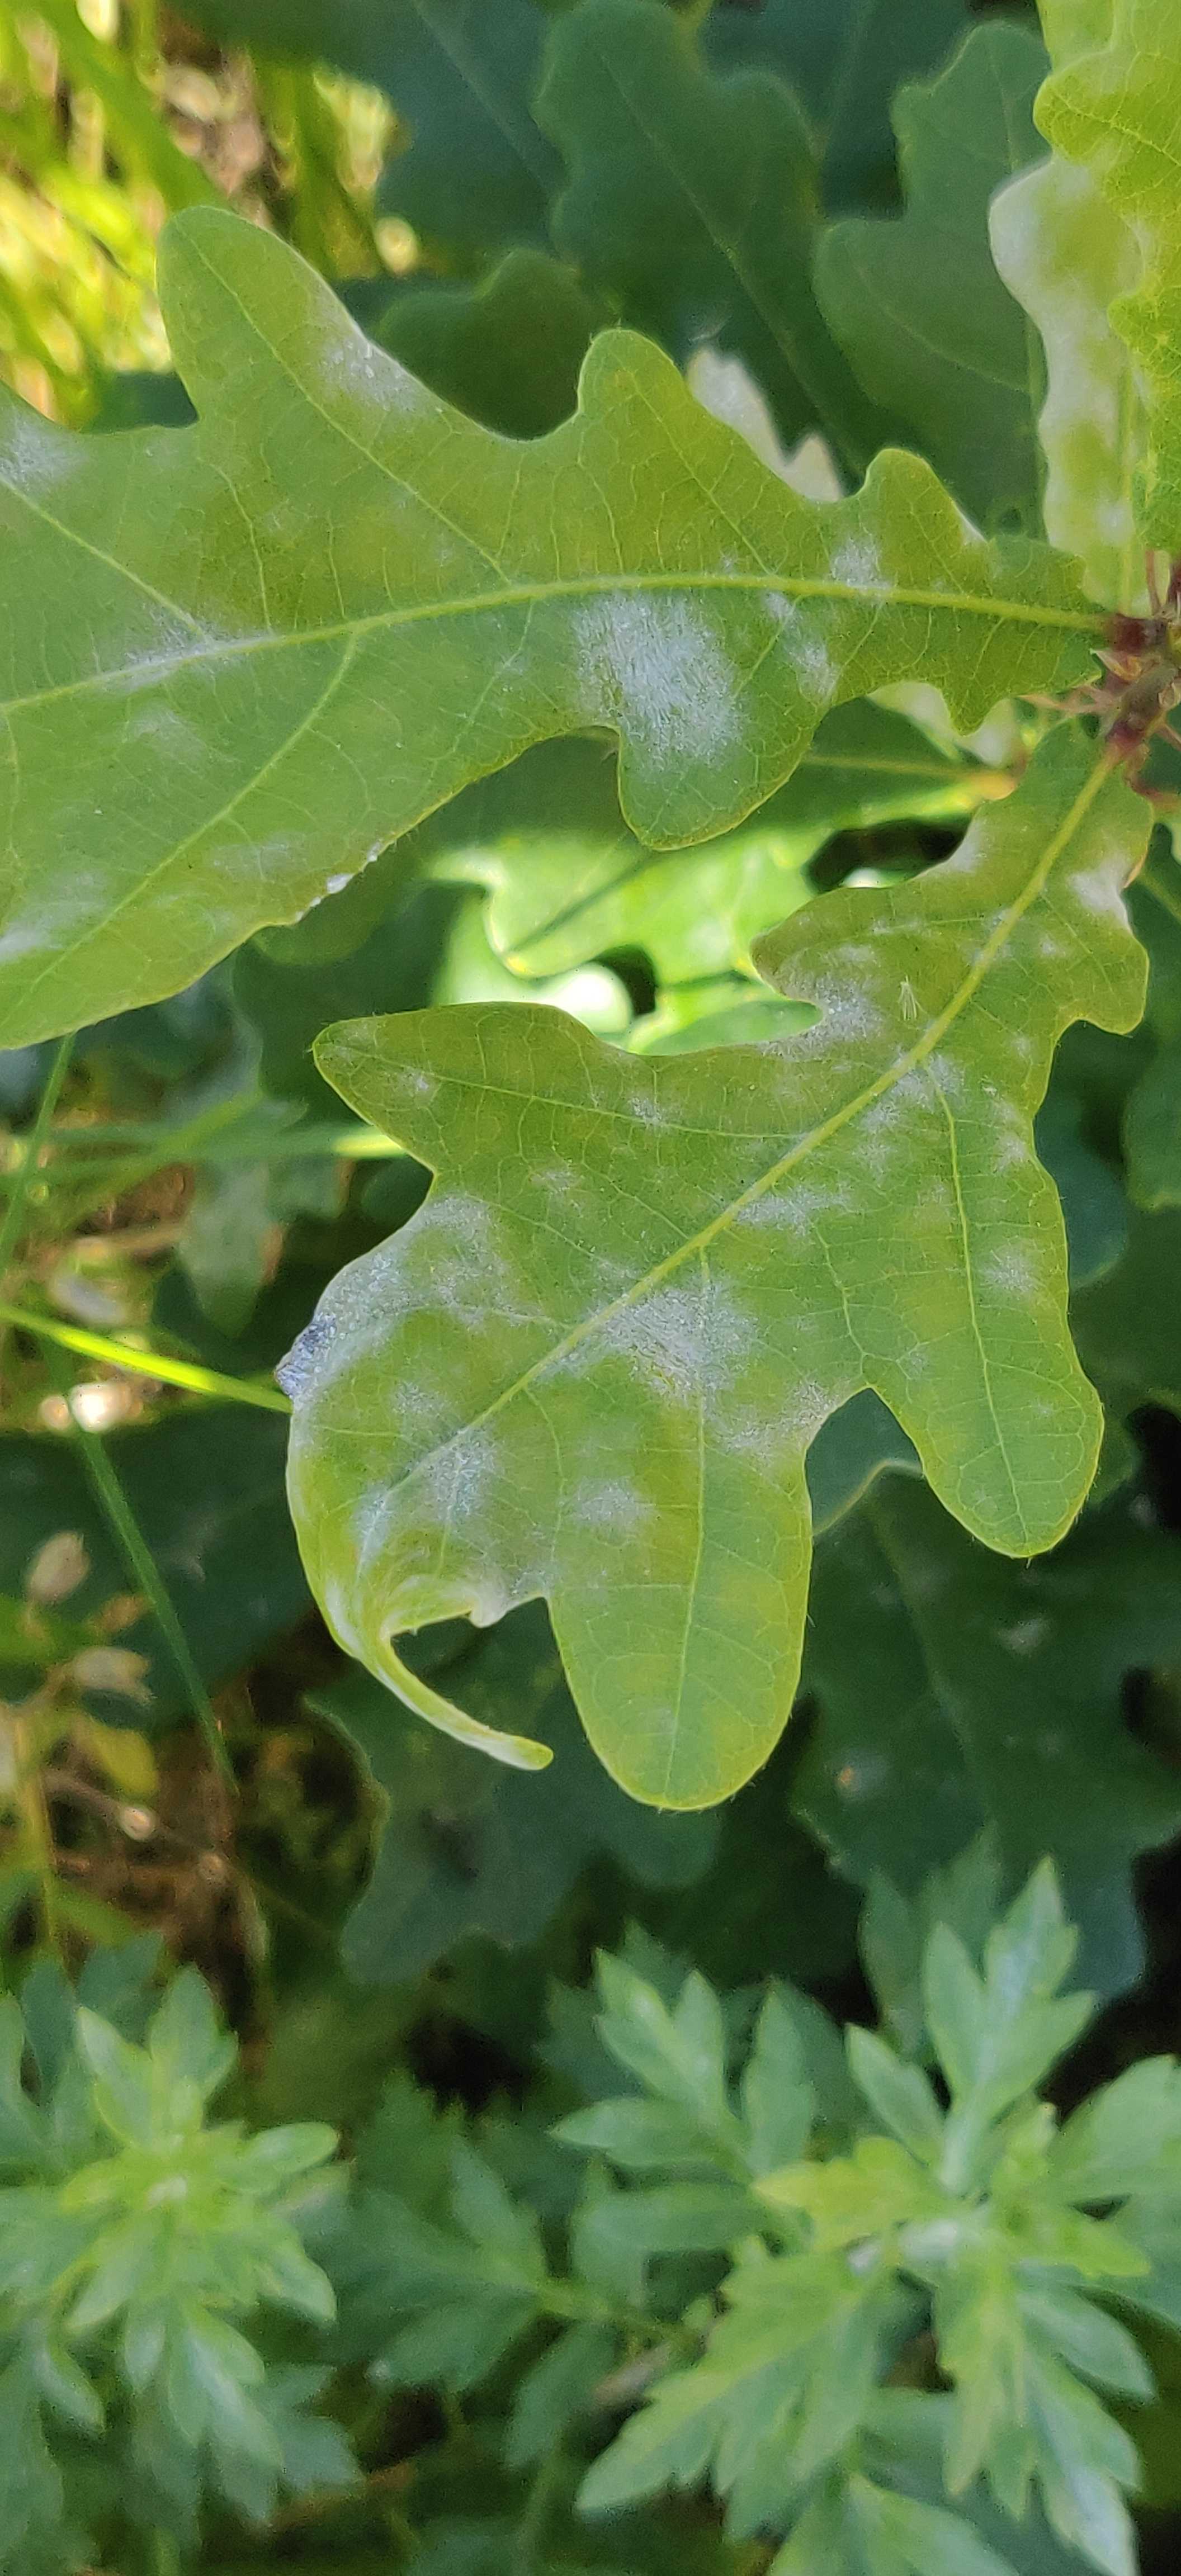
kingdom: Fungi
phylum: Ascomycota
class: Leotiomycetes
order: Helotiales
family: Erysiphaceae
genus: Erysiphe
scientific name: Erysiphe alphitoides
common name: ege-meldug
